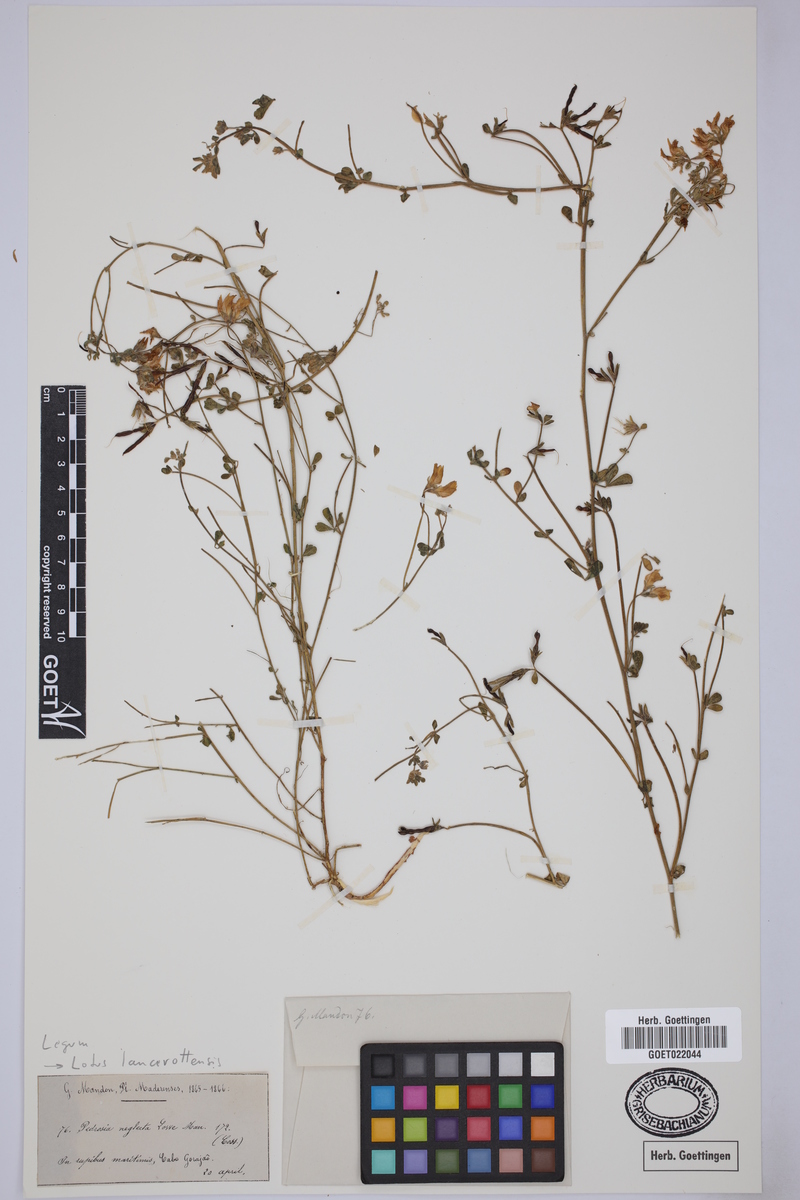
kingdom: Plantae
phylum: Tracheophyta
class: Magnoliopsida
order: Fabales
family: Fabaceae
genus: Lotus
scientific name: Lotus lancerottensis
